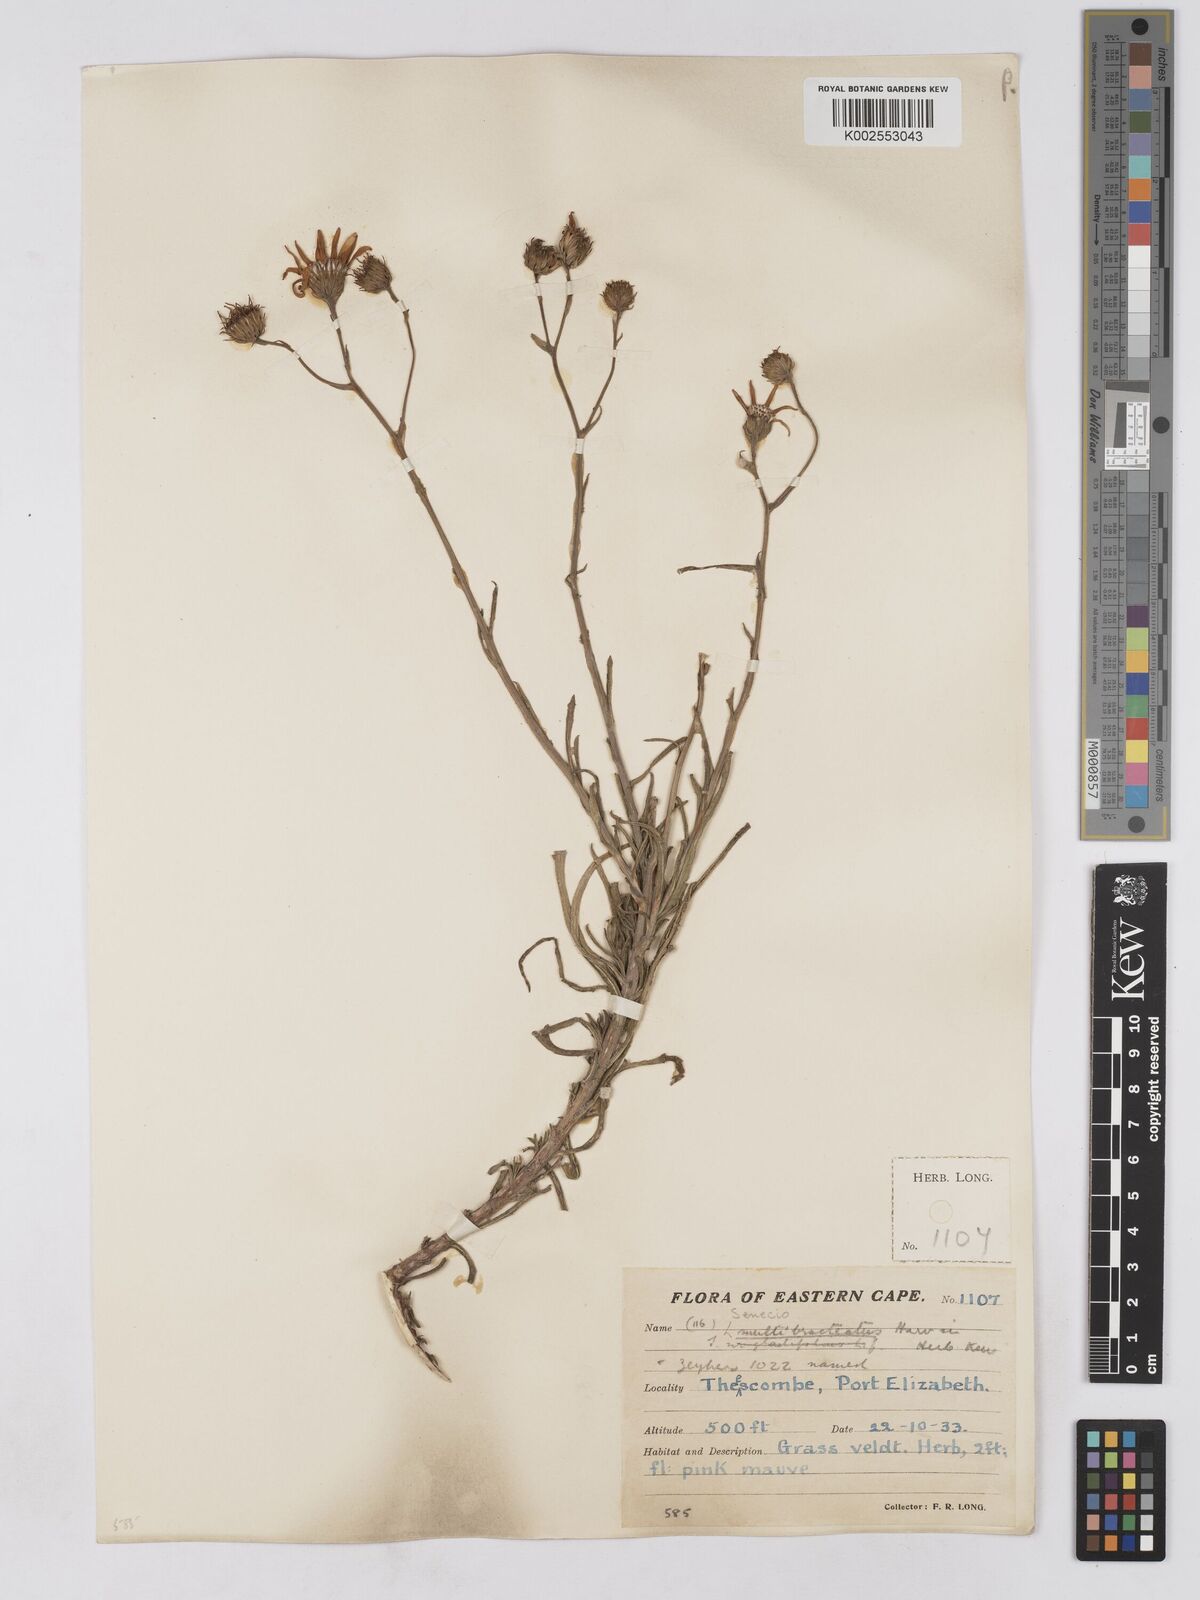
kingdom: Plantae
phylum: Tracheophyta
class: Magnoliopsida
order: Asterales
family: Asteraceae
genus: Senecio
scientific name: Senecio multibracteatus
